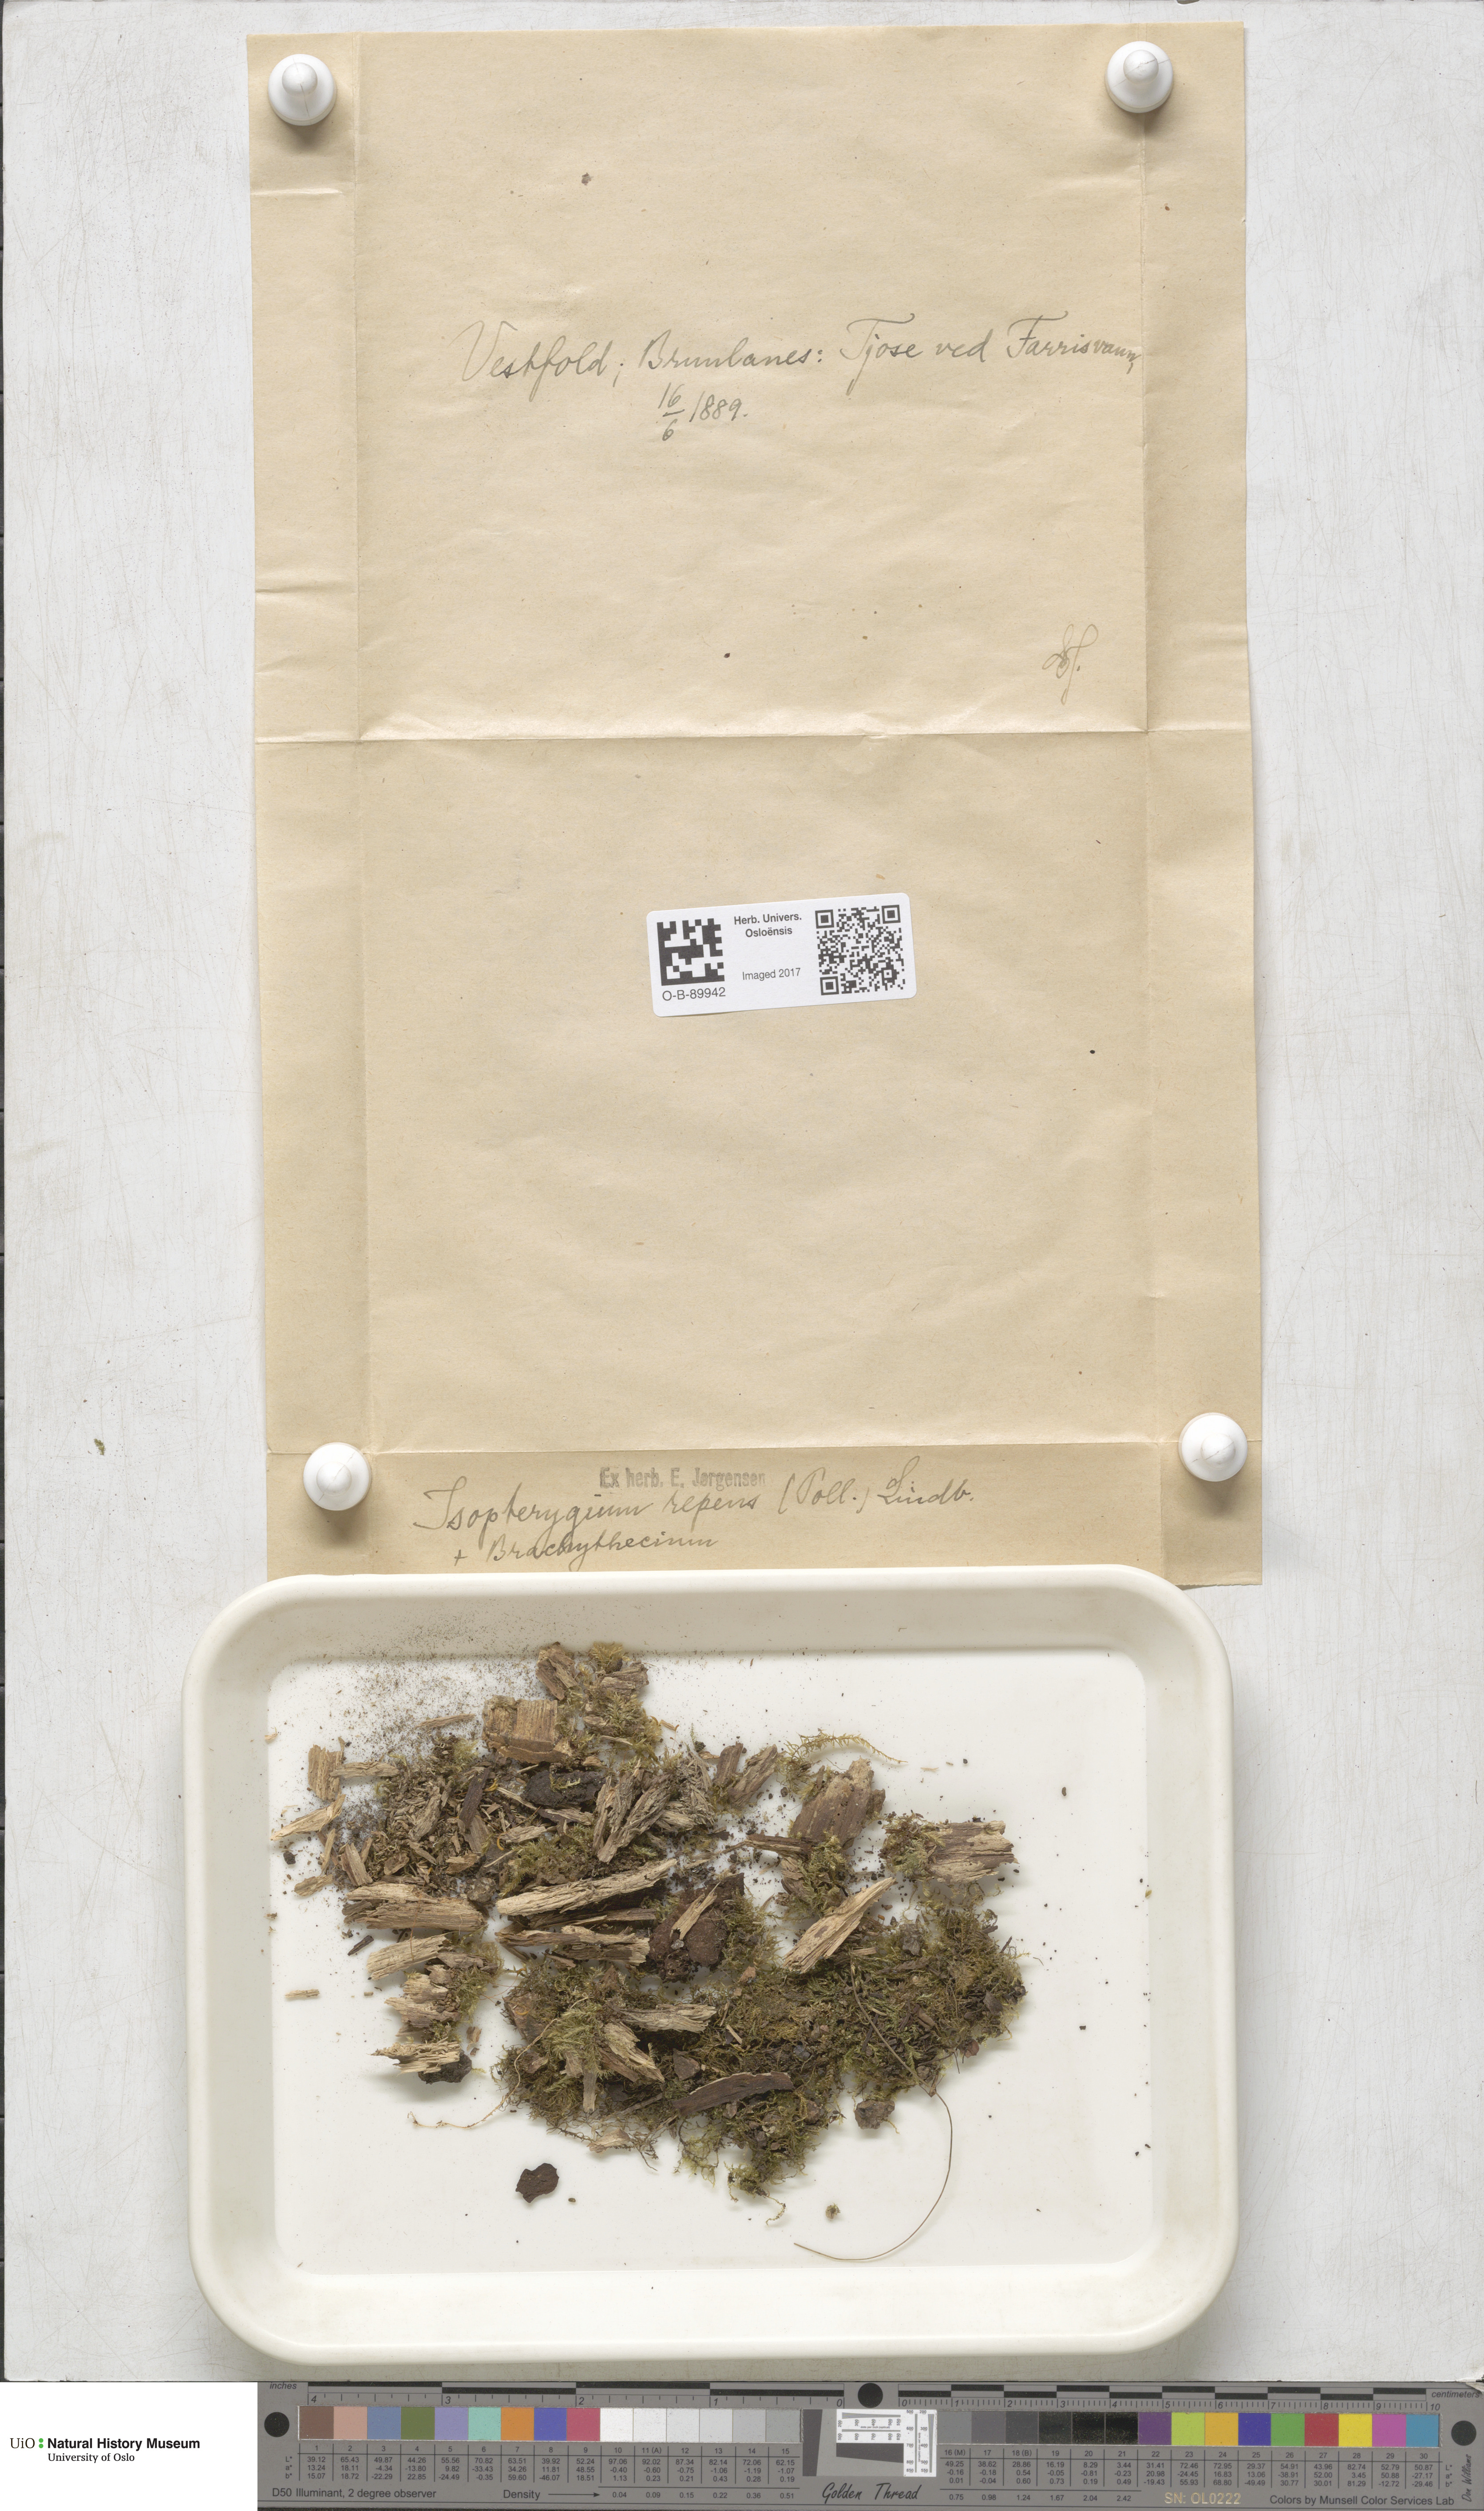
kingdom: Plantae
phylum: Bryophyta
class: Bryopsida
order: Hypnales
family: Plagiotheciaceae
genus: Herzogiella
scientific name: Herzogiella seligeri
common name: Silesian feather-moss
